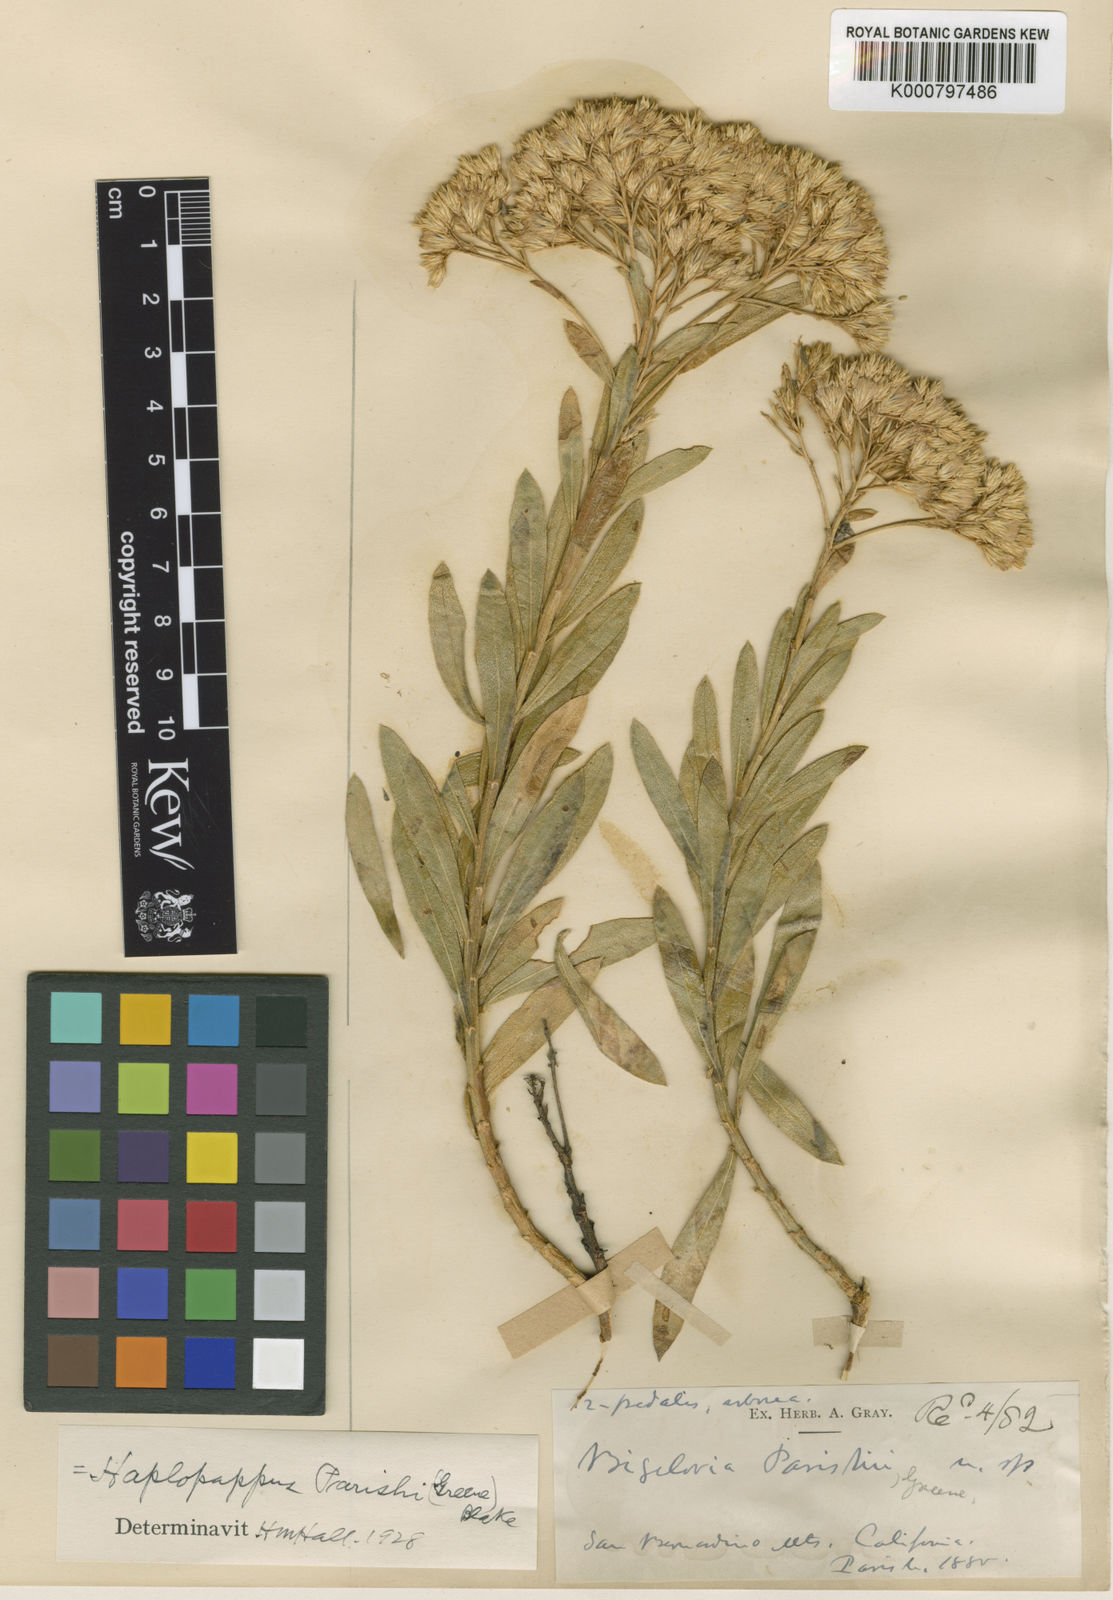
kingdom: Plantae
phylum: Tracheophyta
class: Magnoliopsida
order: Asterales
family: Asteraceae
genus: Ericameria
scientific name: Ericameria parishii
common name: Parish's goldenbush
